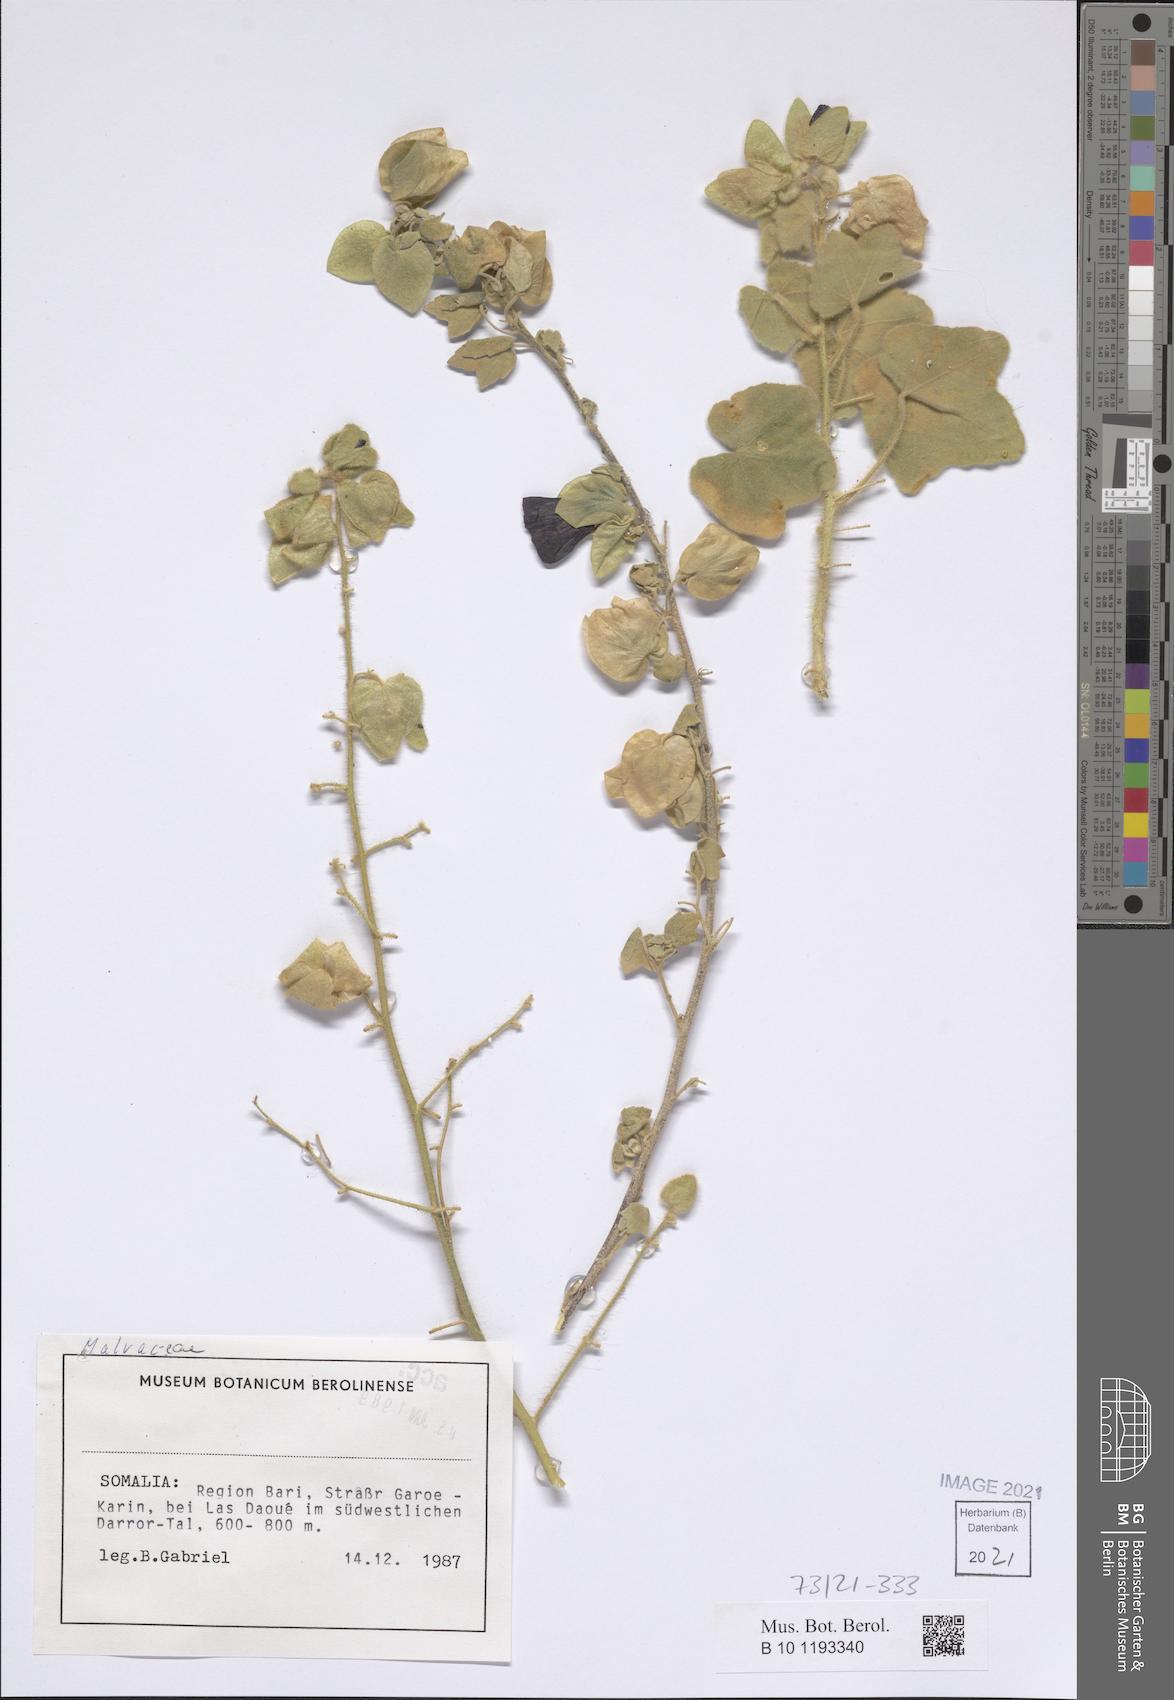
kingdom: Plantae
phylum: Tracheophyta
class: Magnoliopsida
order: Malvales
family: Malvaceae
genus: Senra
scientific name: Senra incana
